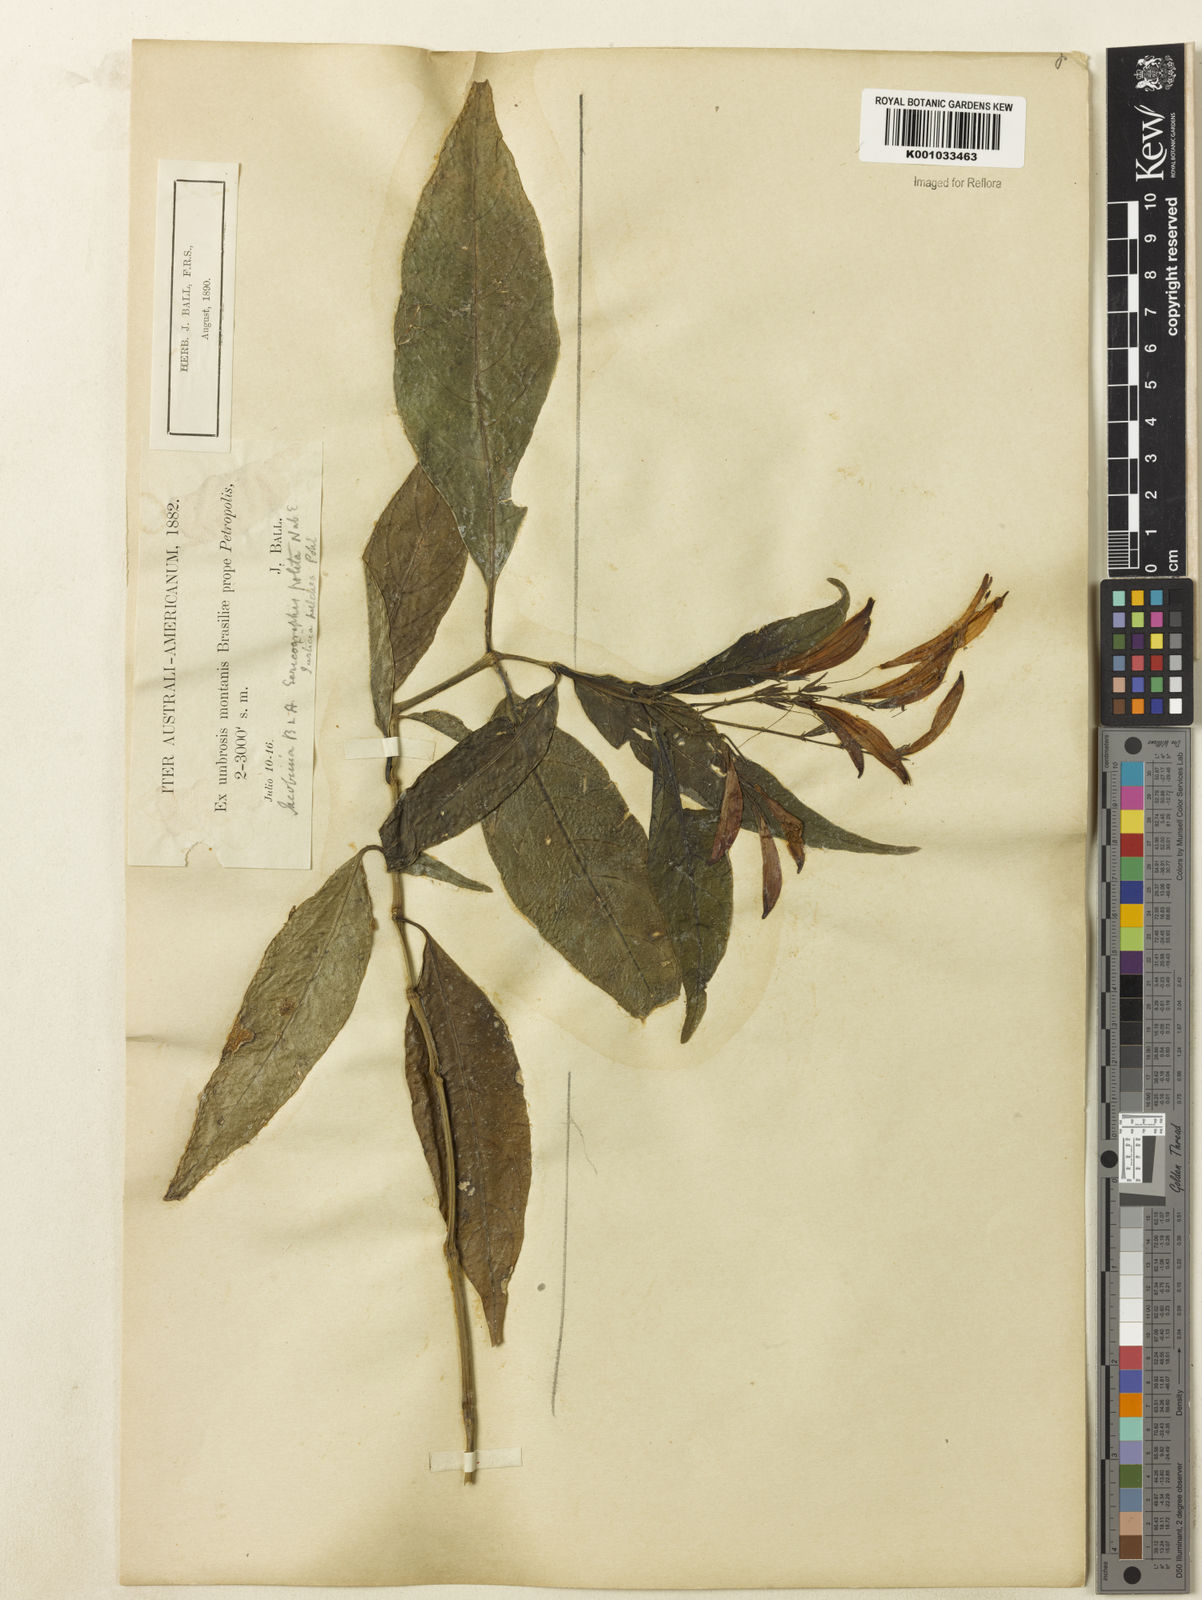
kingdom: Plantae
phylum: Tracheophyta
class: Magnoliopsida
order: Lamiales
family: Acanthaceae
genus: Justicia
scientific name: Justicia polita
